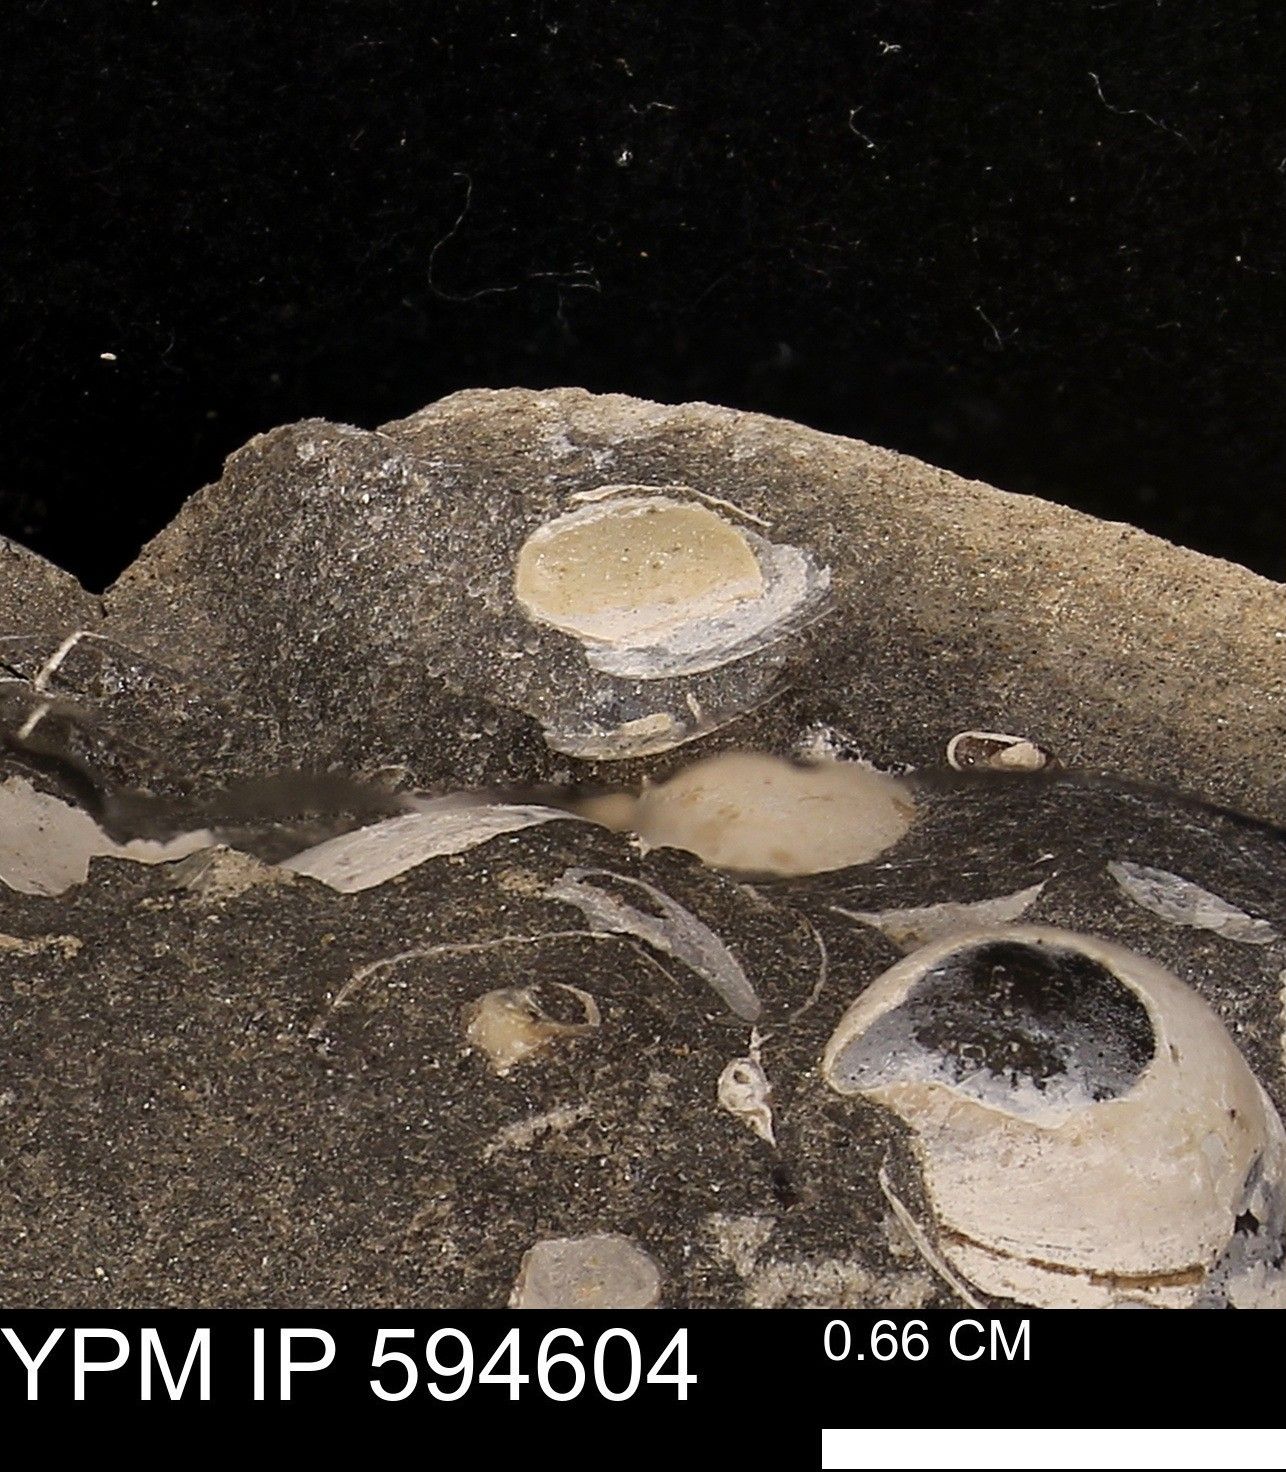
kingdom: Animalia
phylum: Mollusca
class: Bivalvia
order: Cardiida
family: Cardiidae
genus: Protocardia
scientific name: Protocardia
